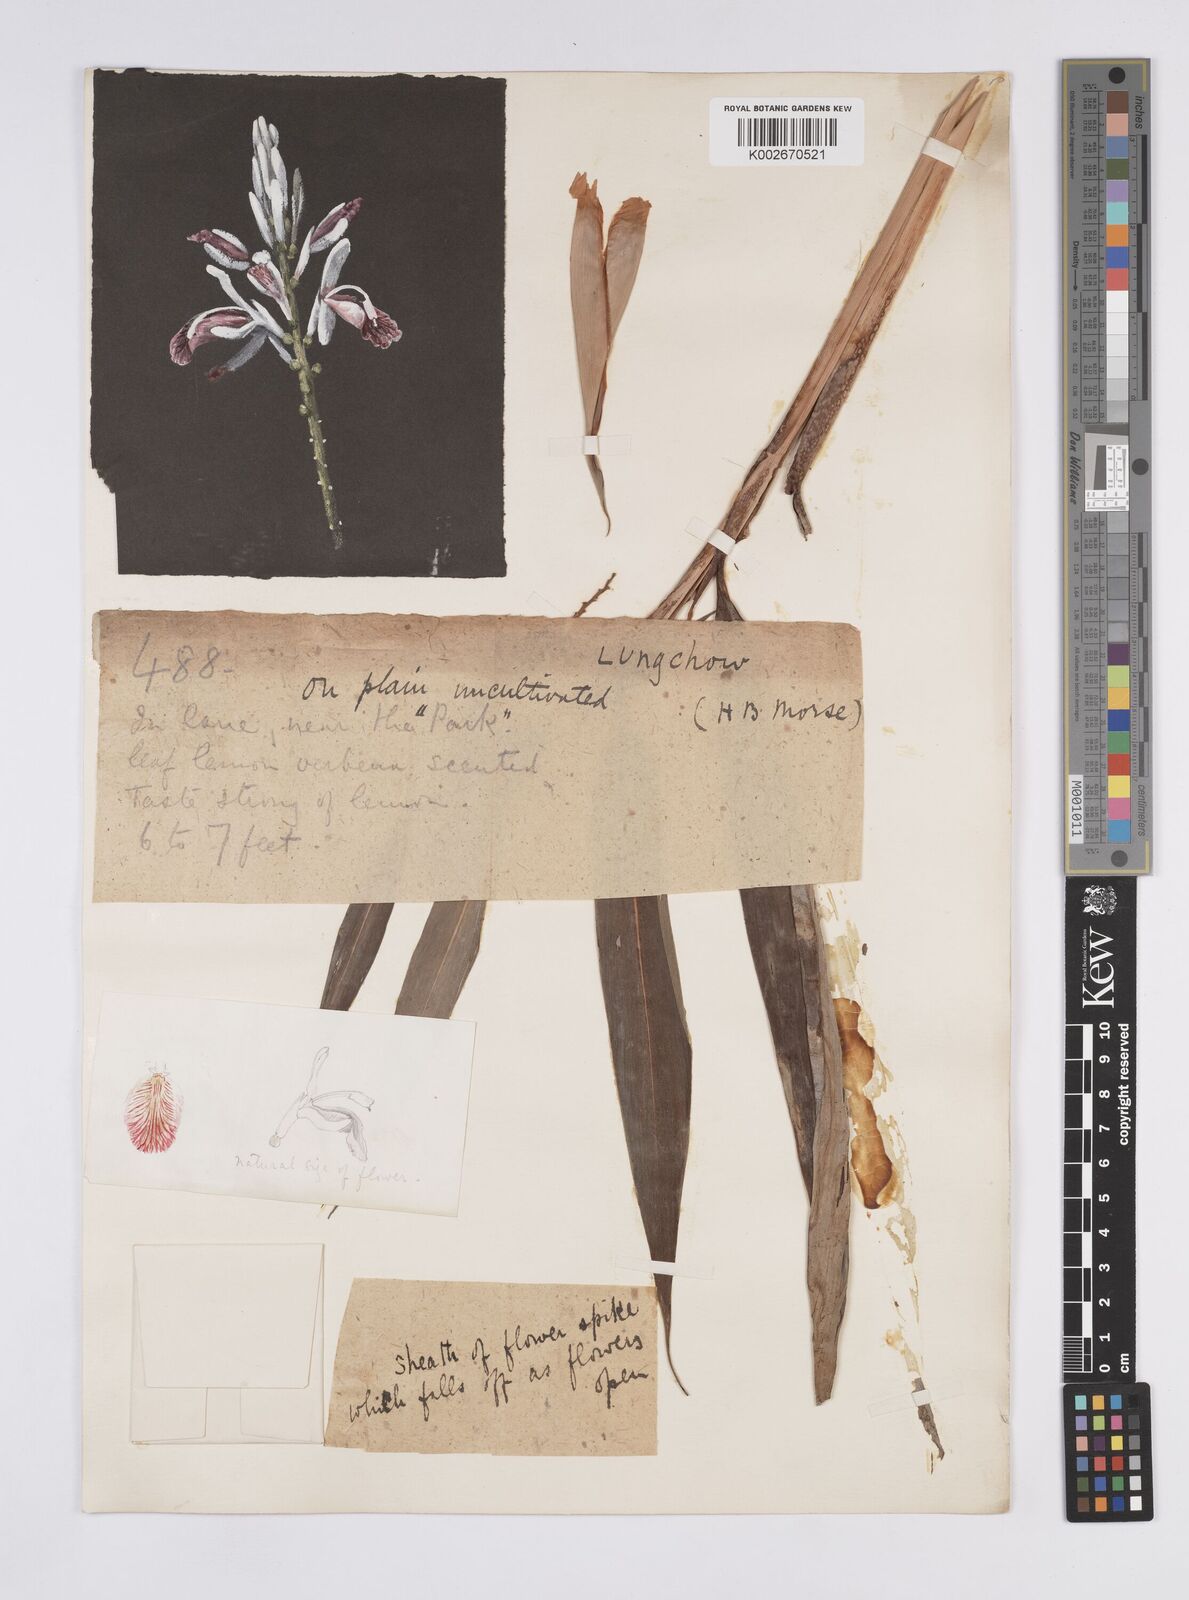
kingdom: Plantae
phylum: Tracheophyta
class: Liliopsida
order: Zingiberales
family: Zingiberaceae
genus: Alpinia
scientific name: Alpinia
